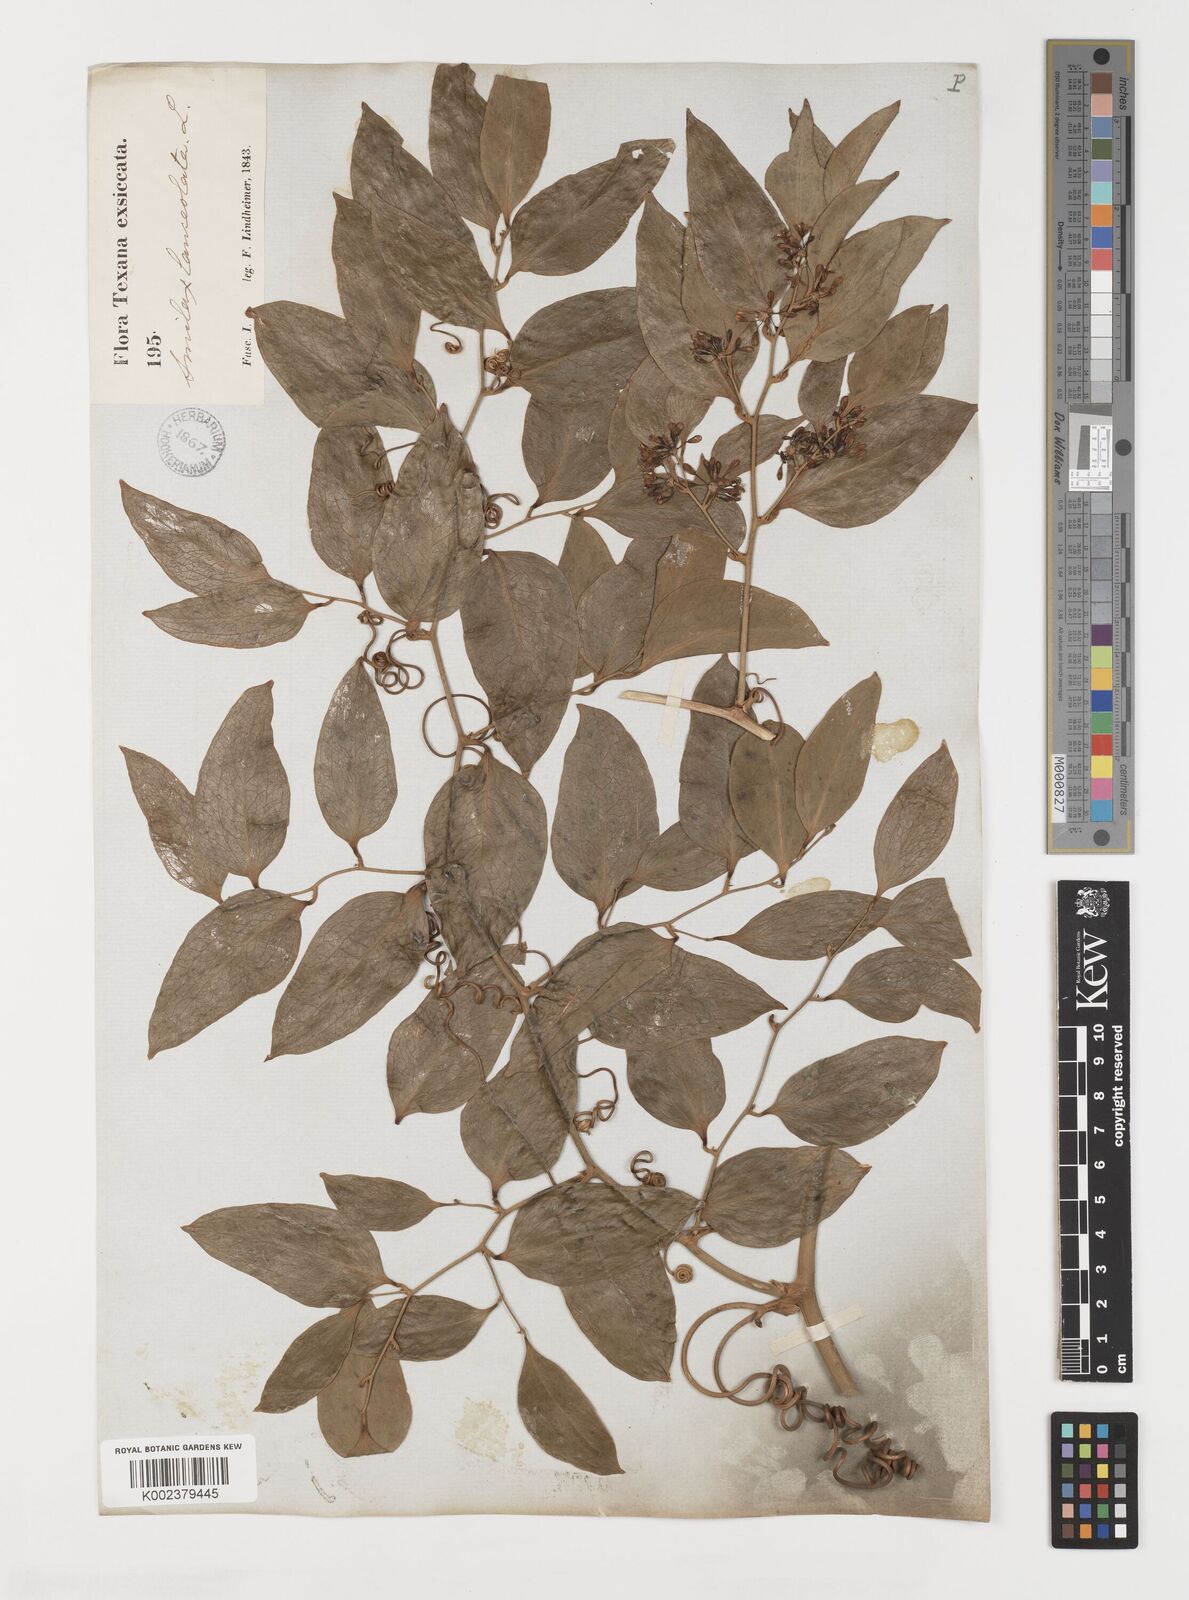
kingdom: Plantae
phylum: Tracheophyta
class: Liliopsida
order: Liliales
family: Smilacaceae
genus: Smilax
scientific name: Smilax laurifolia
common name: Bamboovine
